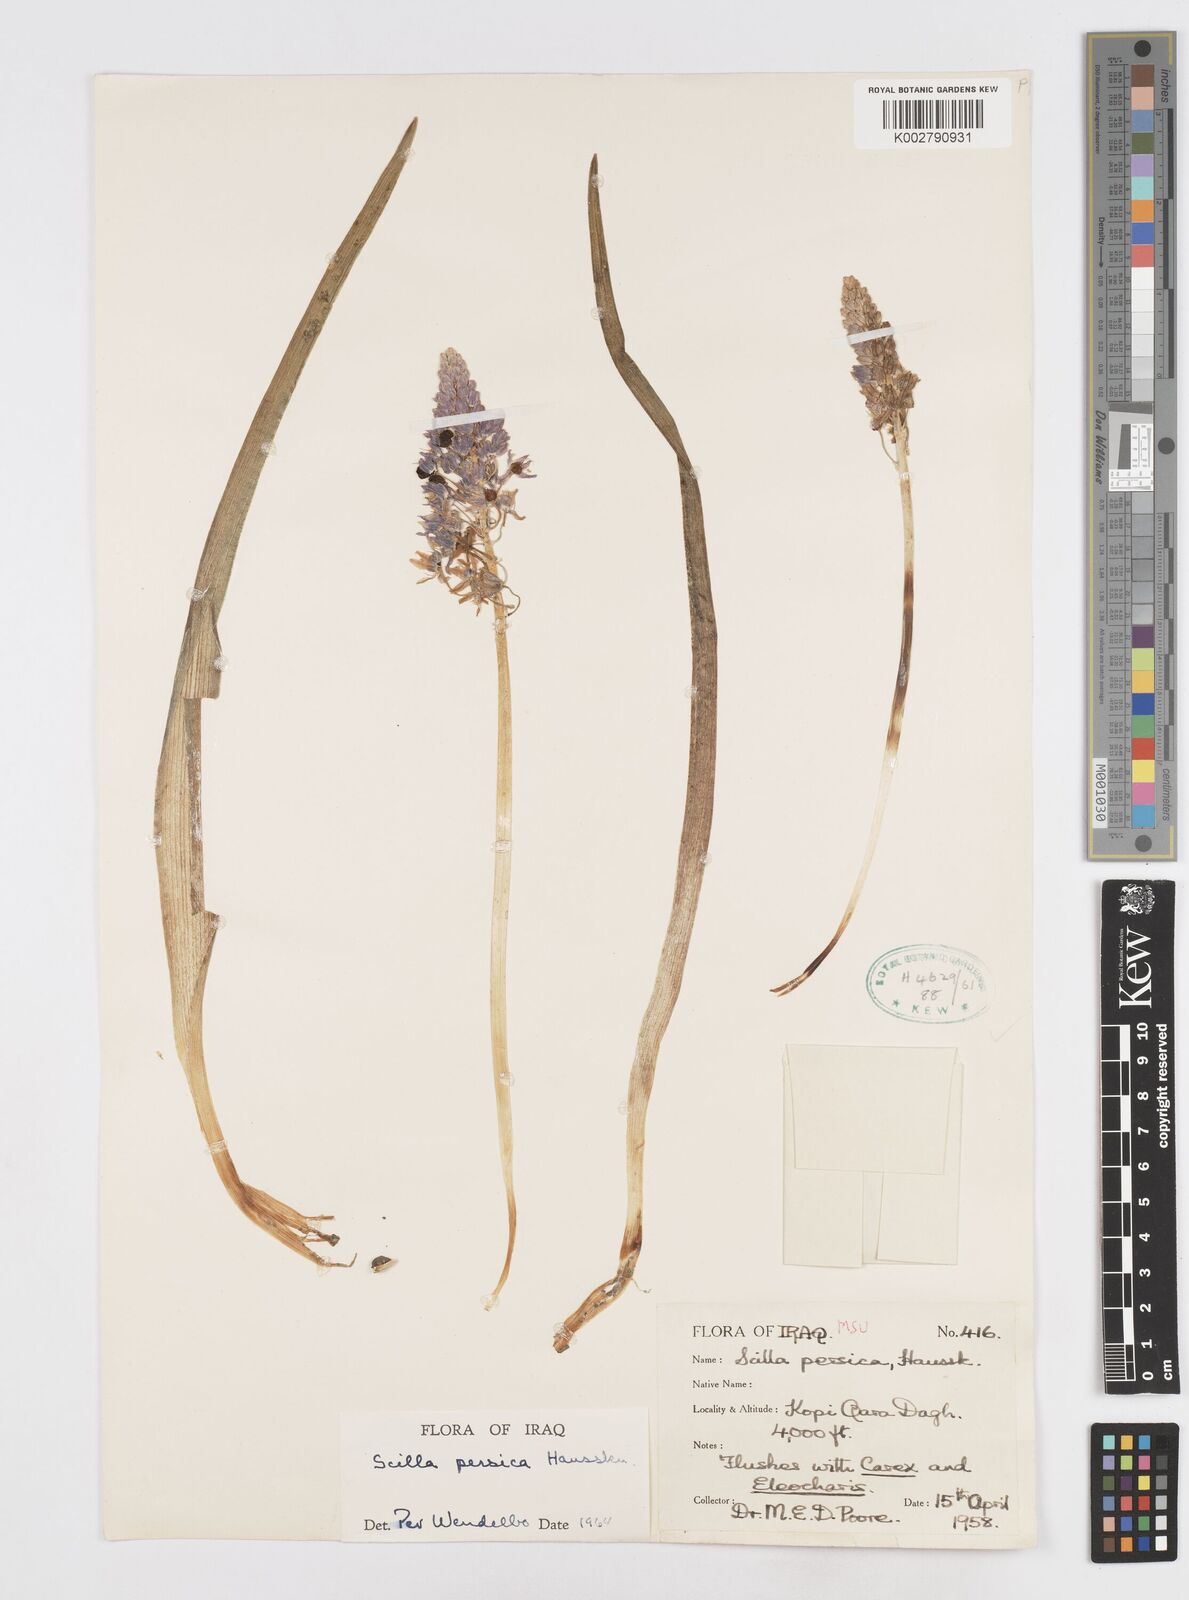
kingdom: Plantae
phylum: Tracheophyta
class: Liliopsida
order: Asparagales
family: Asparagaceae
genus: Zagrosia
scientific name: Zagrosia persica
